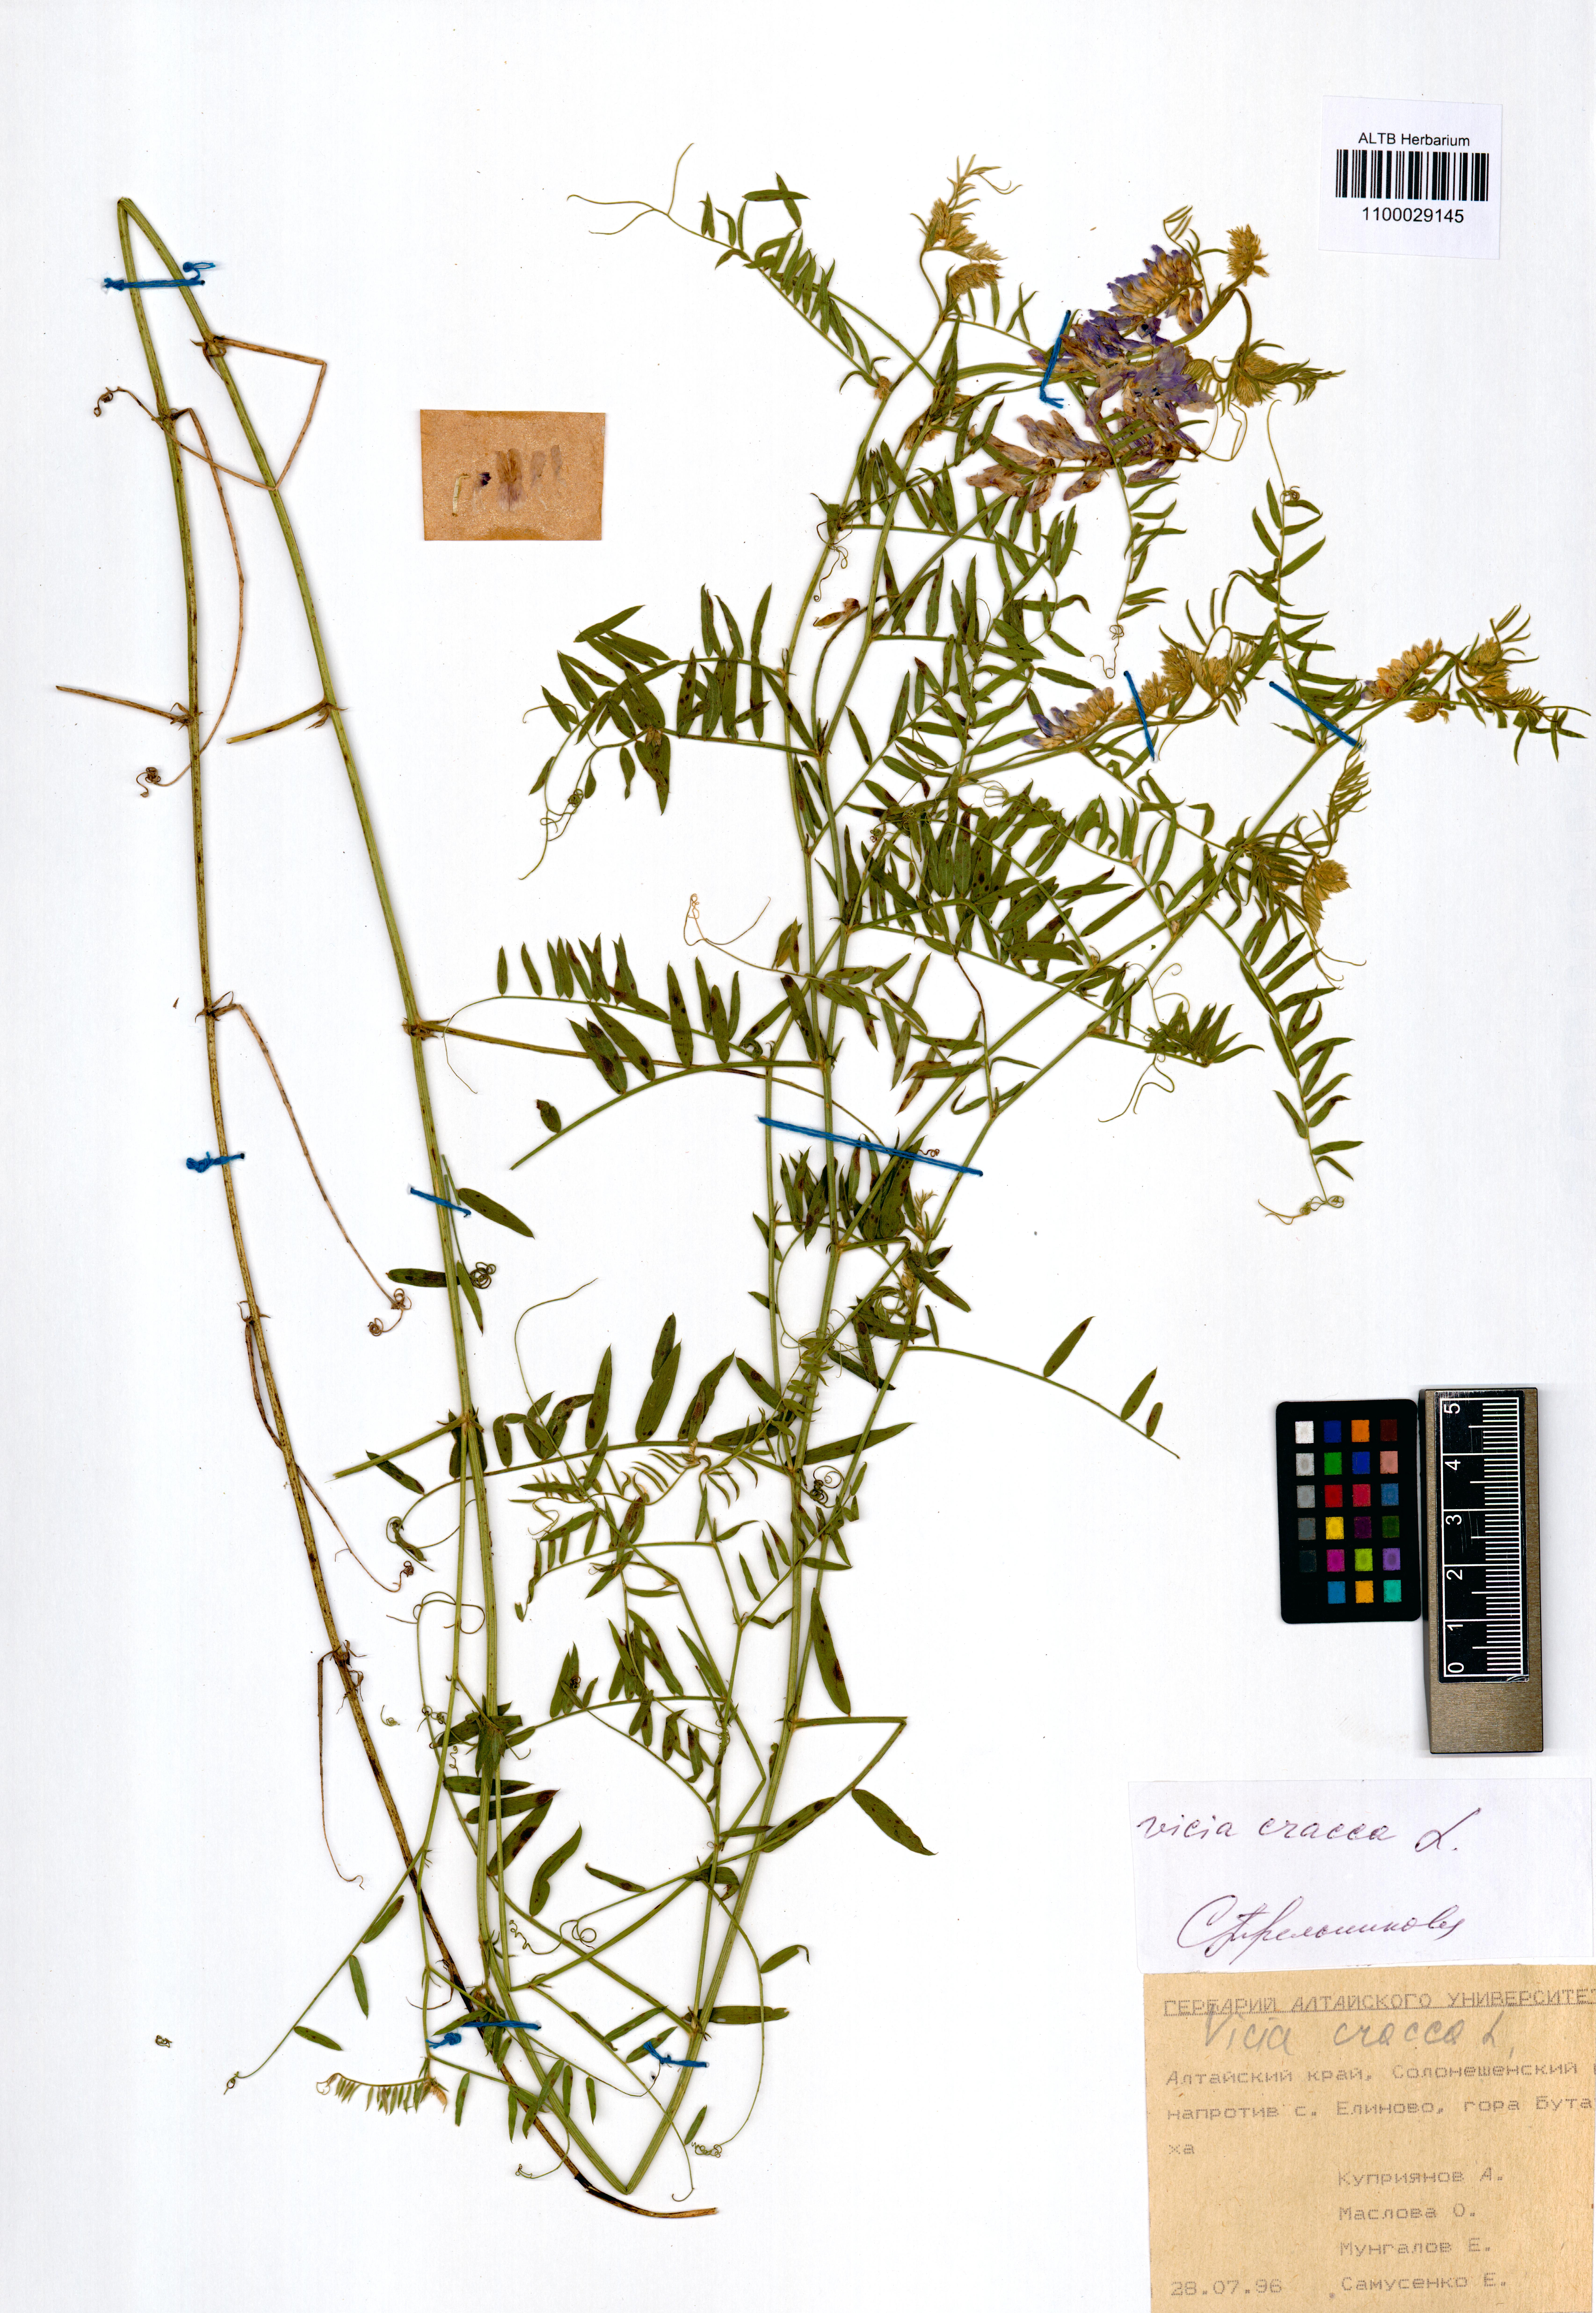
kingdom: Plantae
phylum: Tracheophyta
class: Magnoliopsida
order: Fabales
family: Fabaceae
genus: Vicia
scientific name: Vicia cracca
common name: Bird vetch
